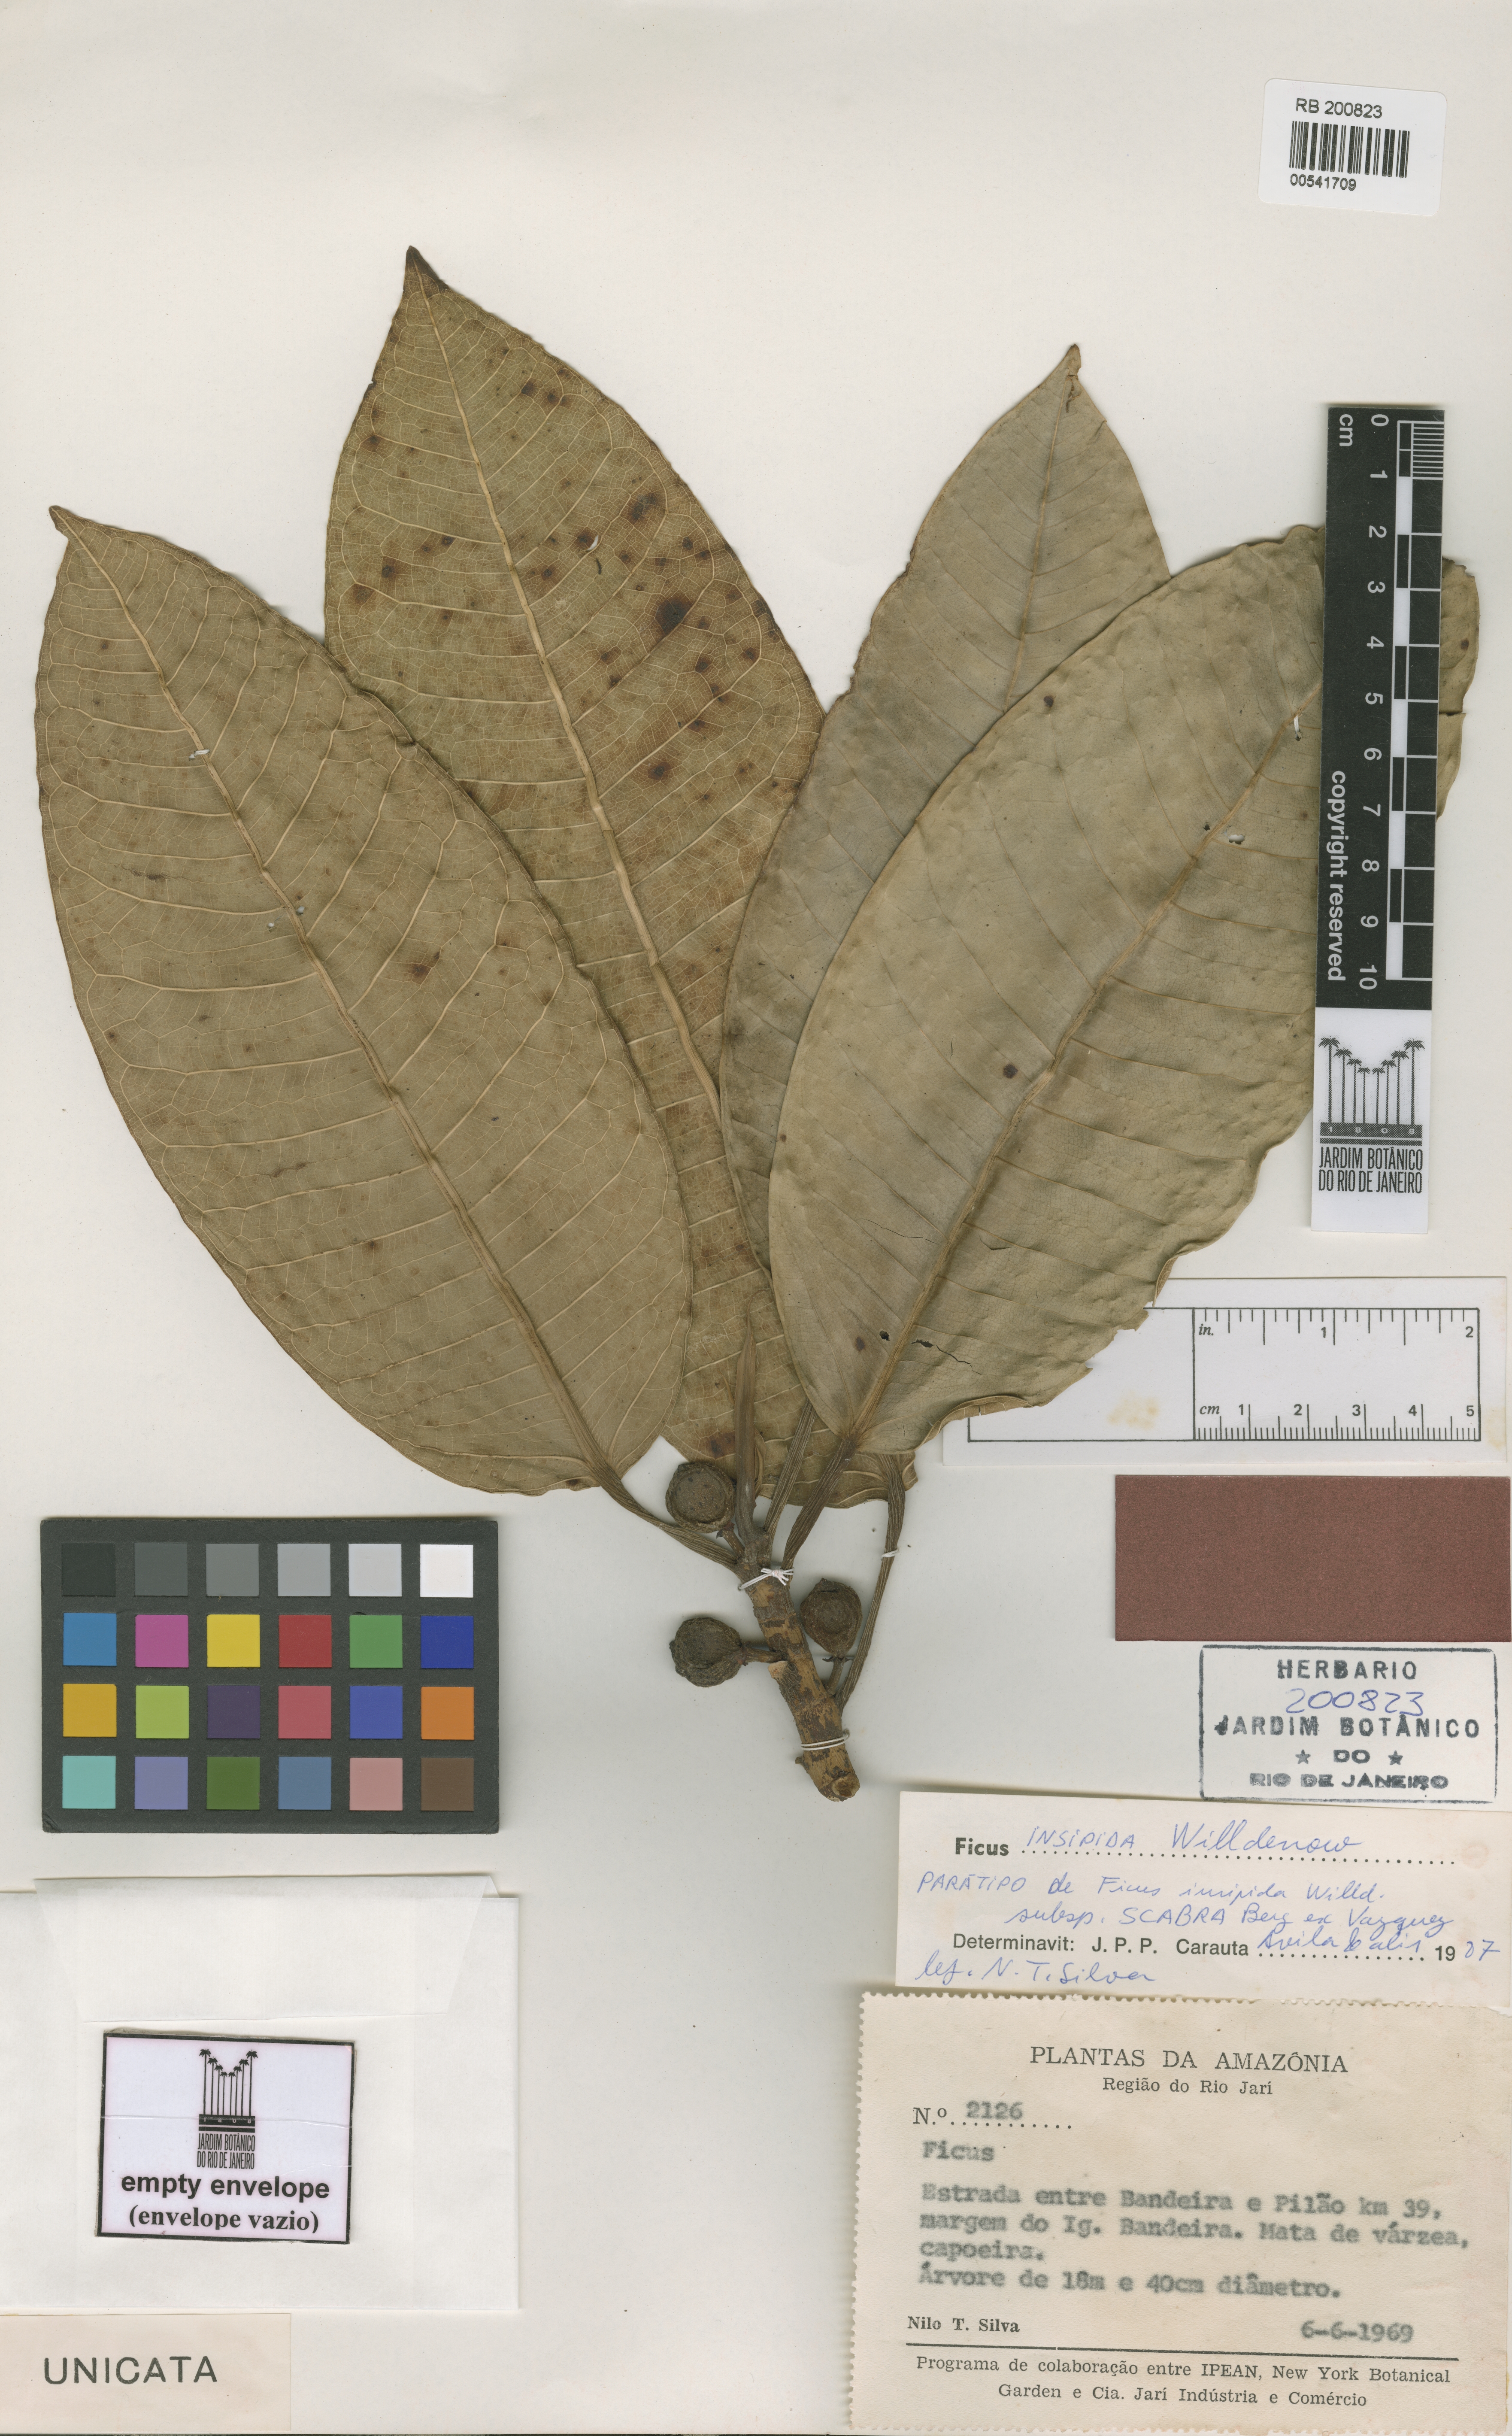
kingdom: Plantae
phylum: Tracheophyta
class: Magnoliopsida
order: Rosales
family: Moraceae
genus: Ficus
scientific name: Ficus insipida
